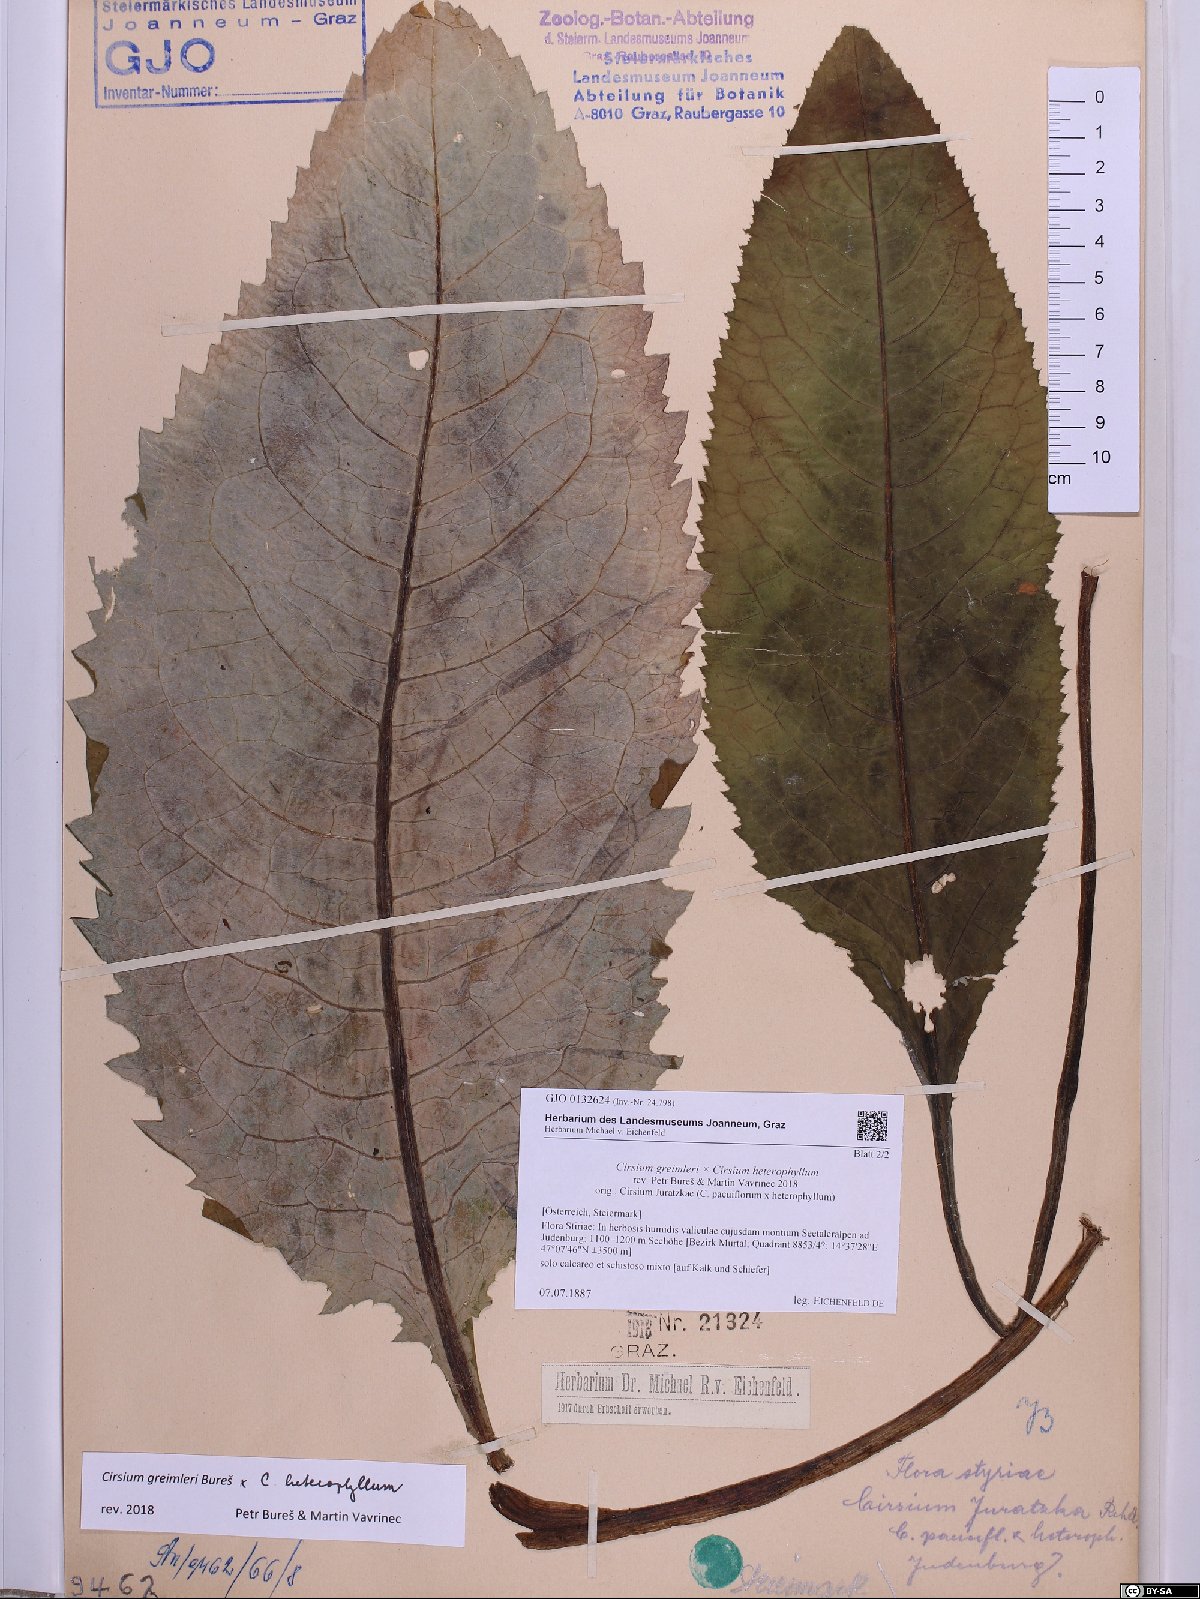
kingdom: Plantae
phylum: Tracheophyta
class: Magnoliopsida
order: Asterales
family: Asteraceae
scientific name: Asteraceae
